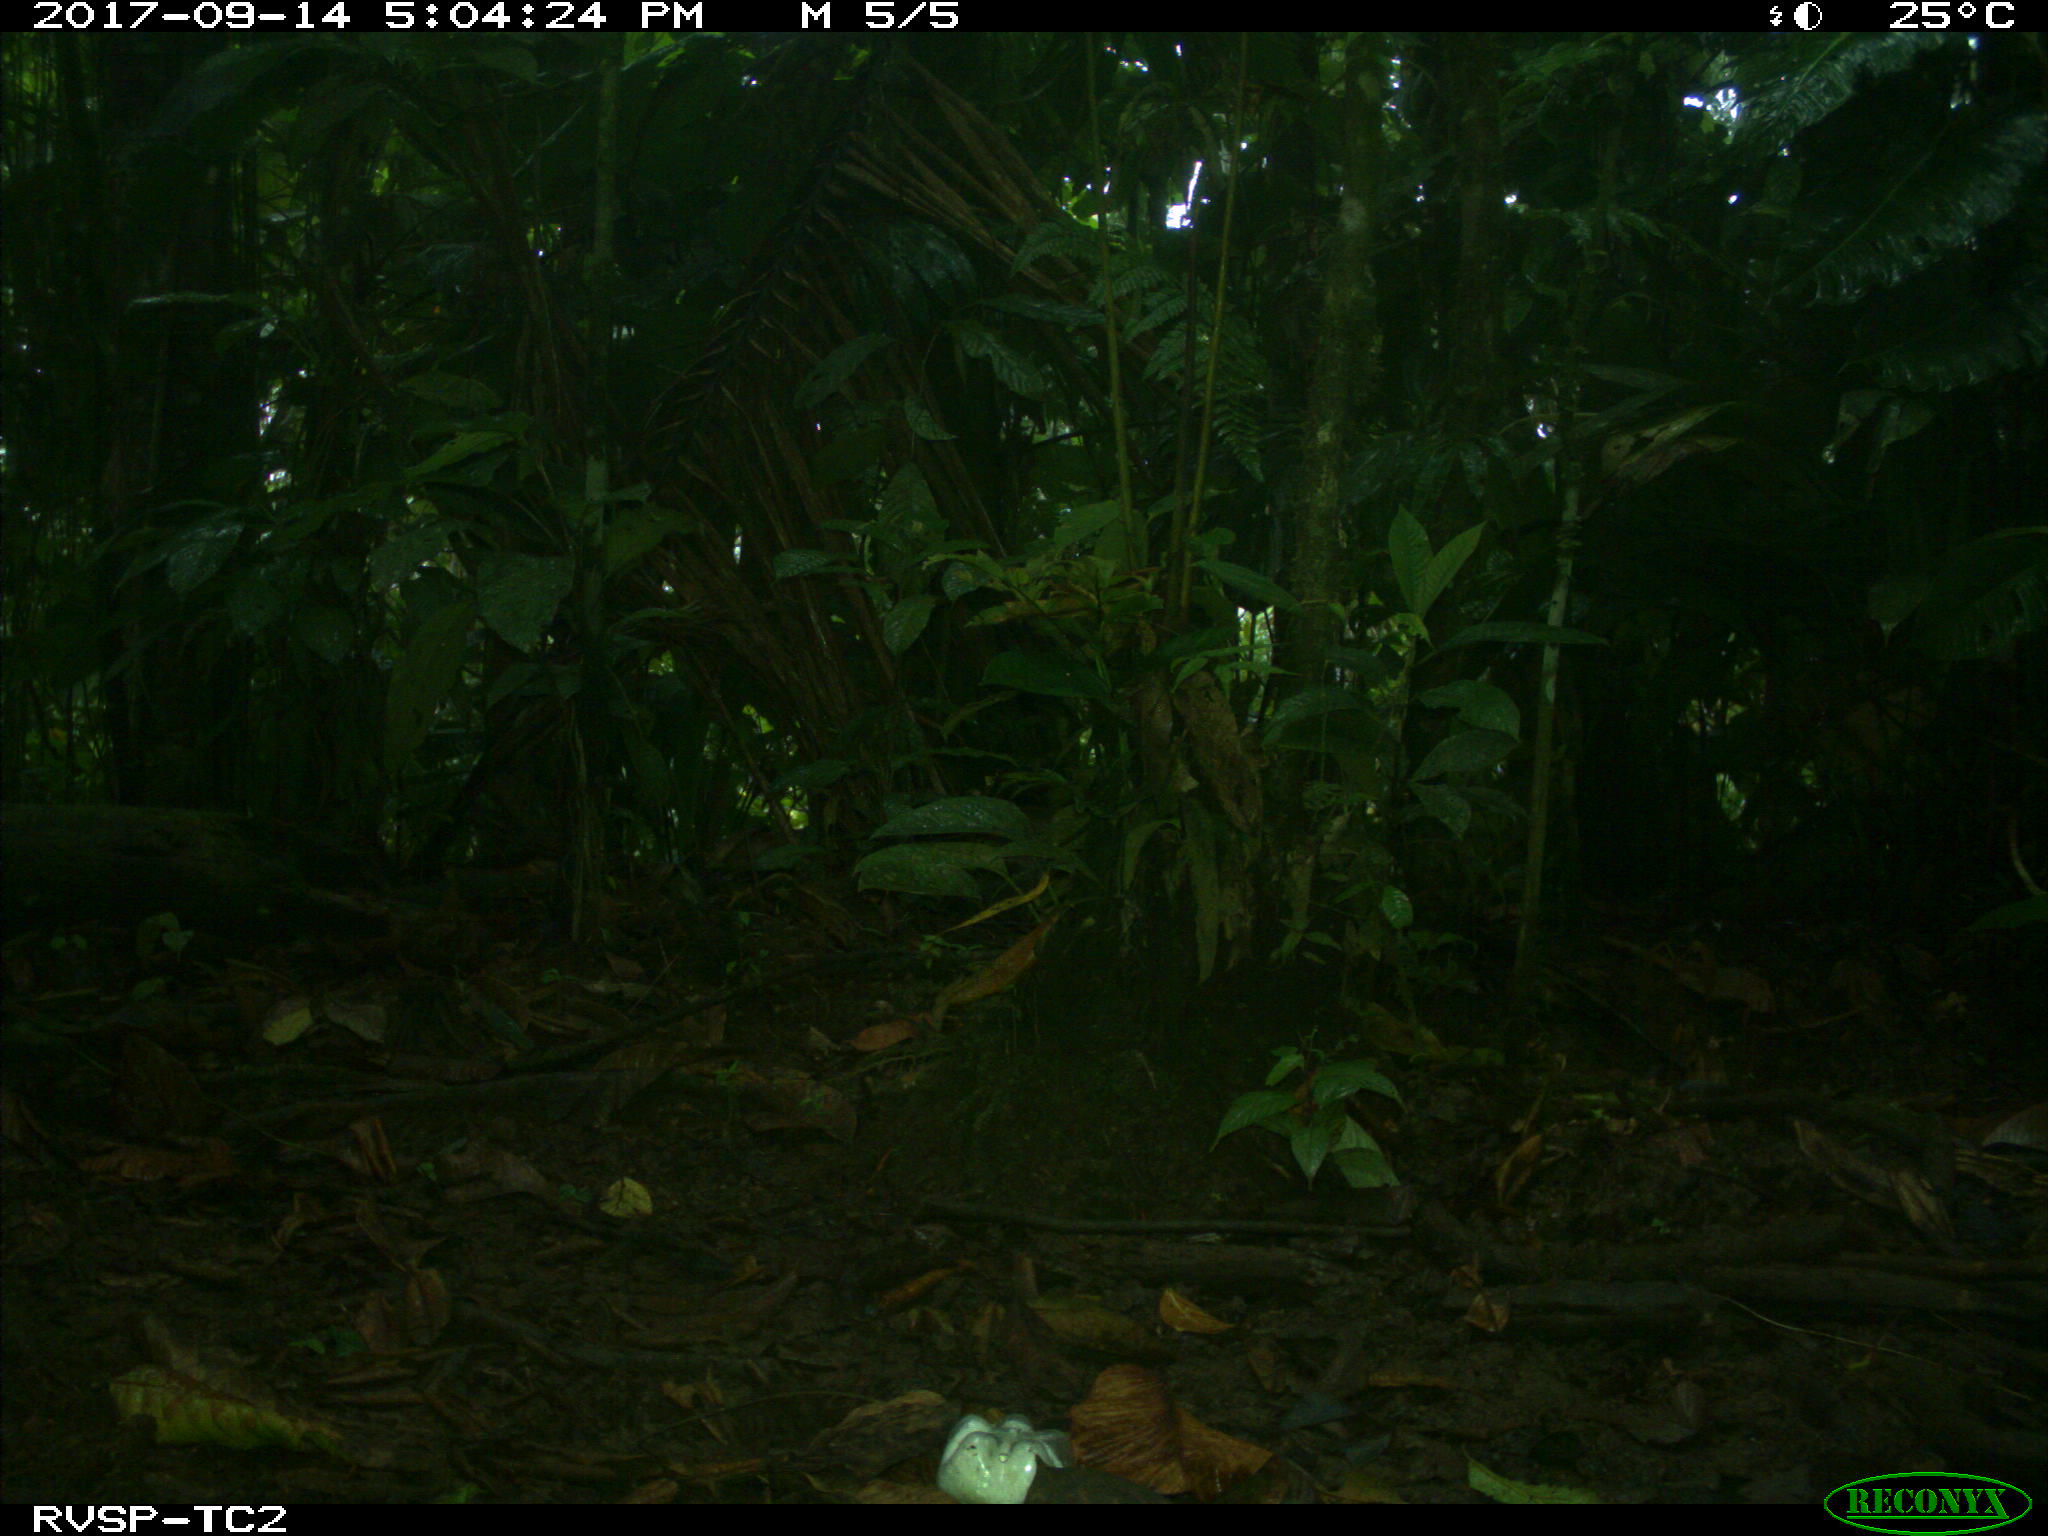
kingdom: Animalia
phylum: Chordata
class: Mammalia
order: Rodentia
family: Dasyproctidae
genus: Dasyprocta
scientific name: Dasyprocta punctata
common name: Central american agouti
